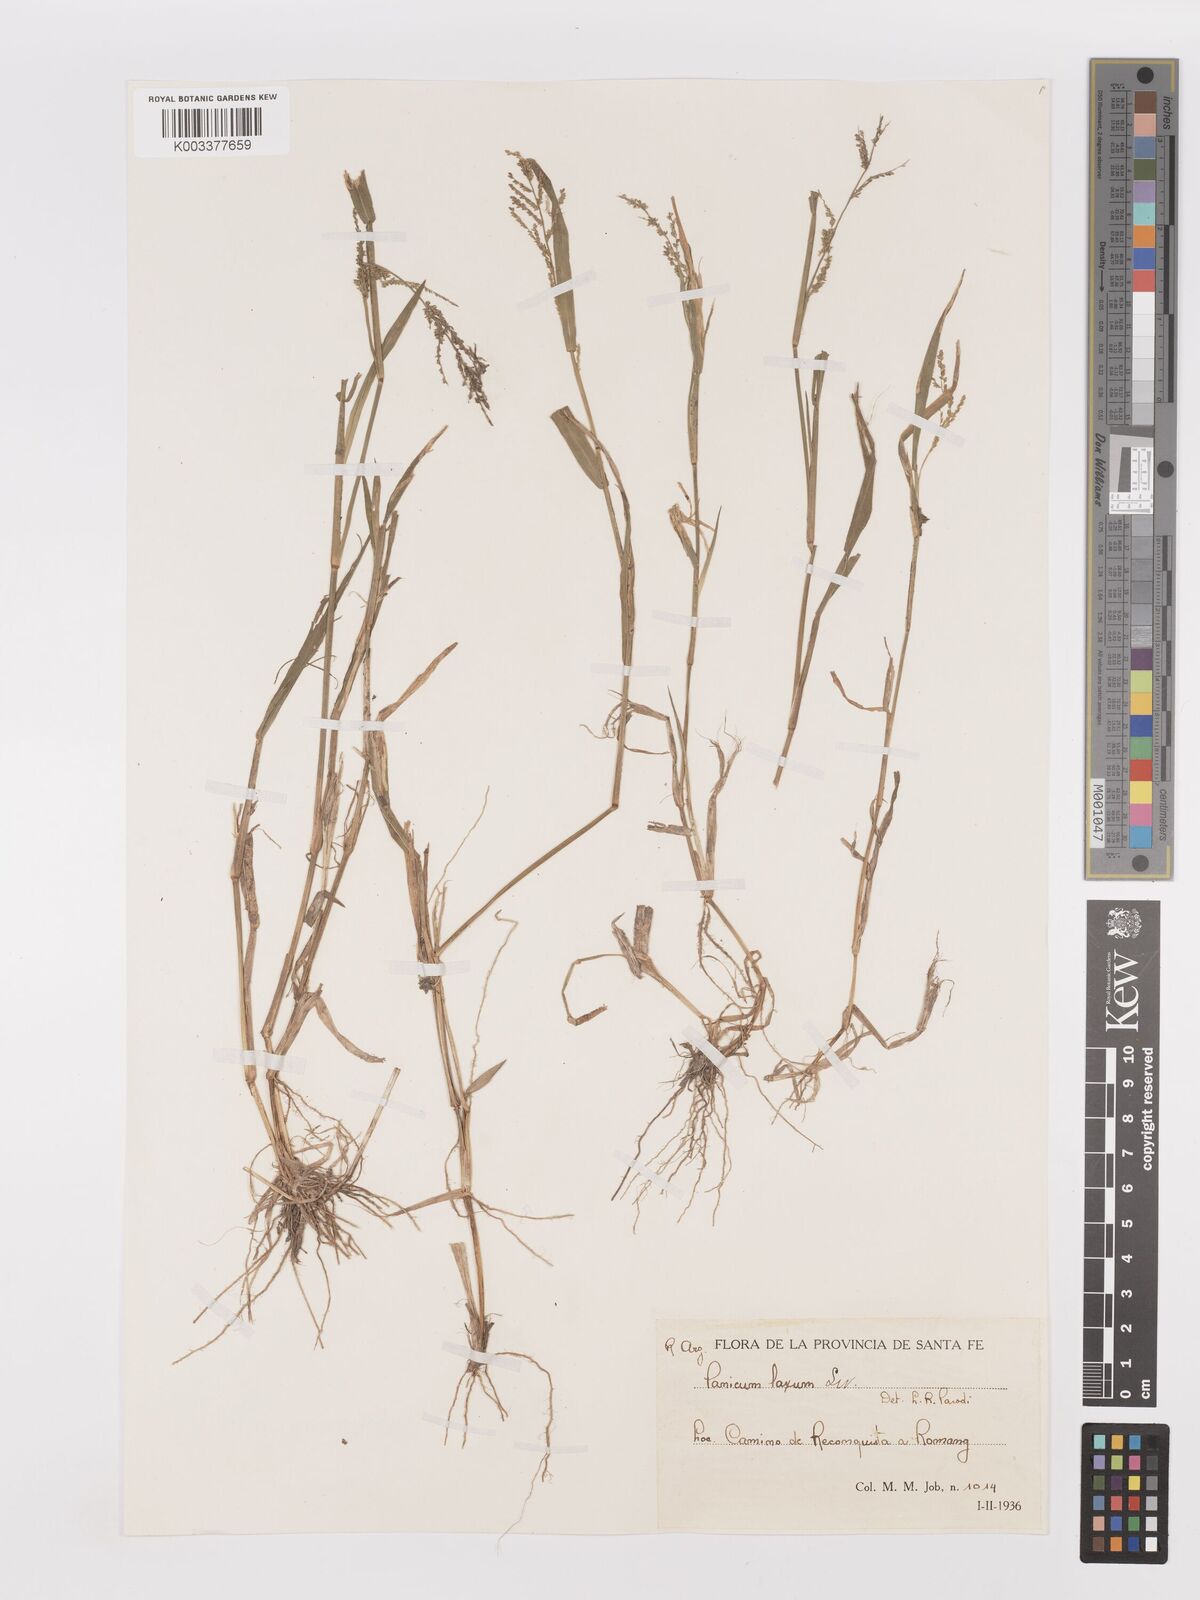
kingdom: Plantae
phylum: Tracheophyta
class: Liliopsida
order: Poales
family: Poaceae
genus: Steinchisma
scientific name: Steinchisma laxum
